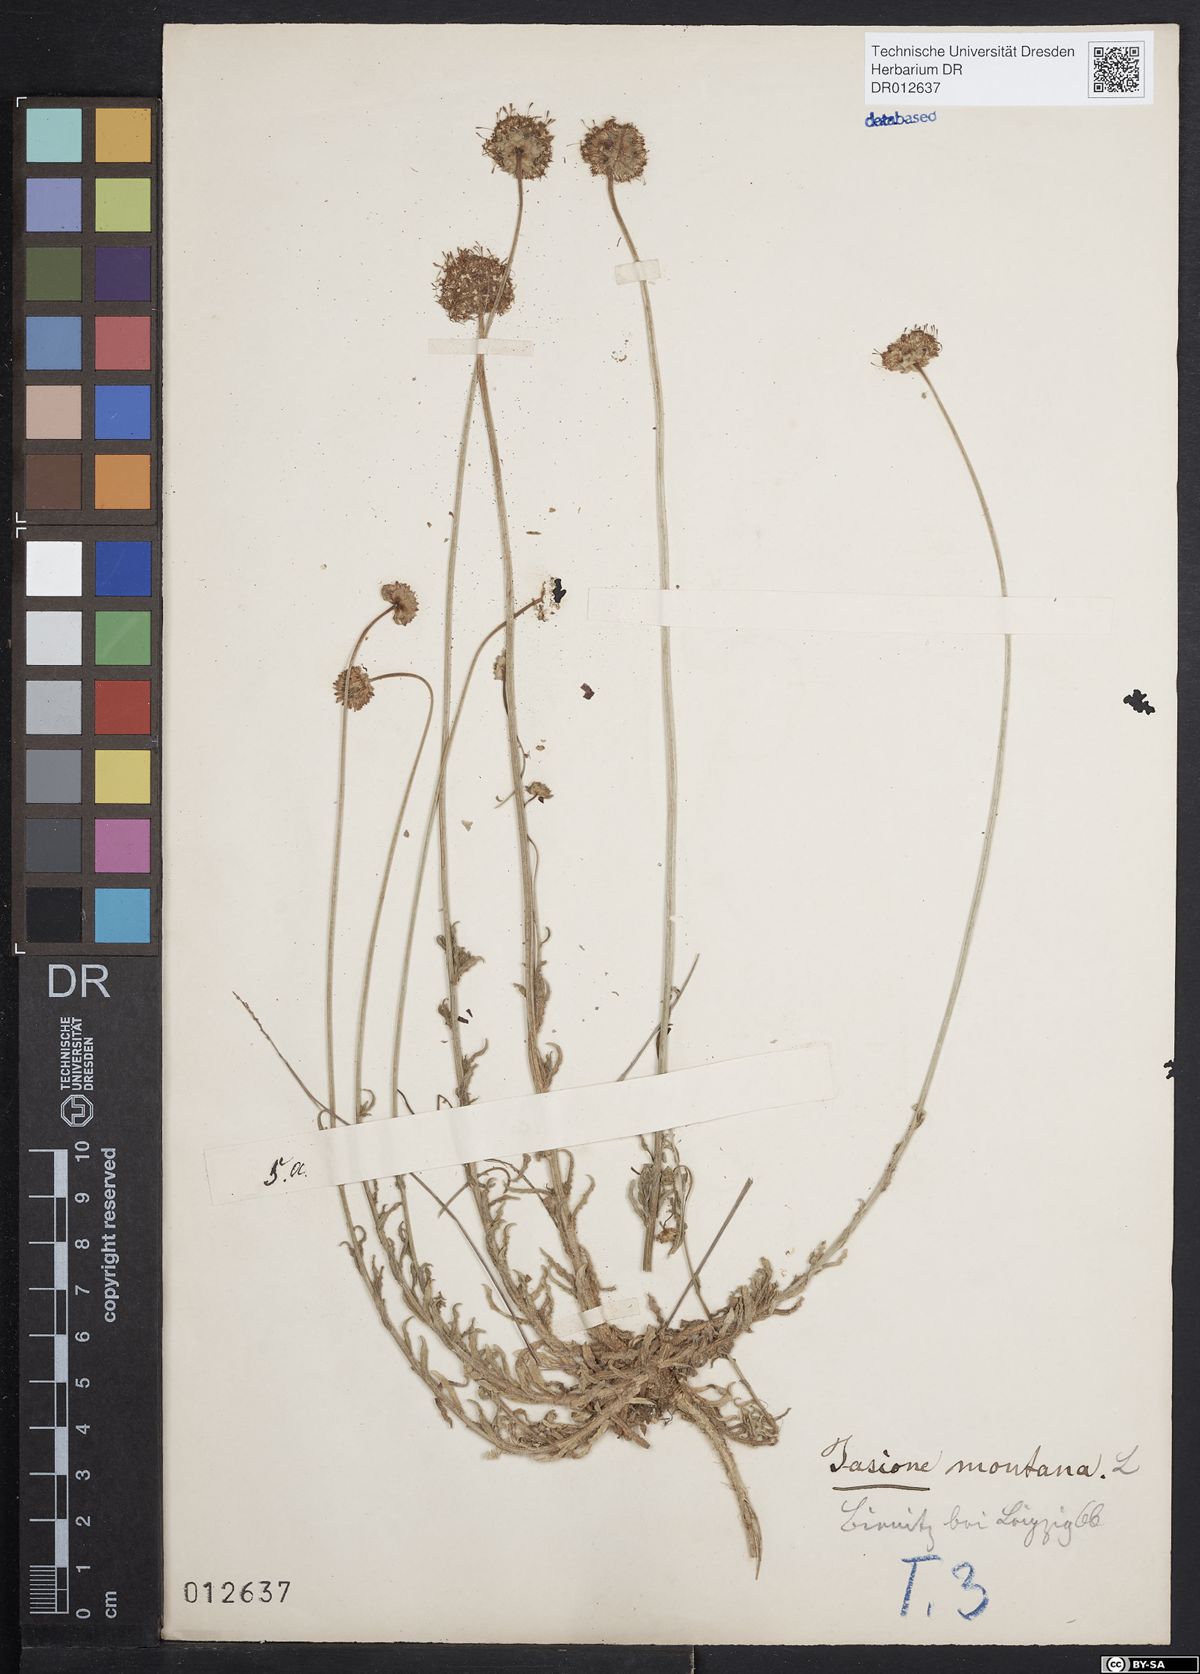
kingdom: Plantae
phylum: Tracheophyta
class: Magnoliopsida
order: Asterales
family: Campanulaceae
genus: Jasione
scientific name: Jasione montana
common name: Sheep's-bit
